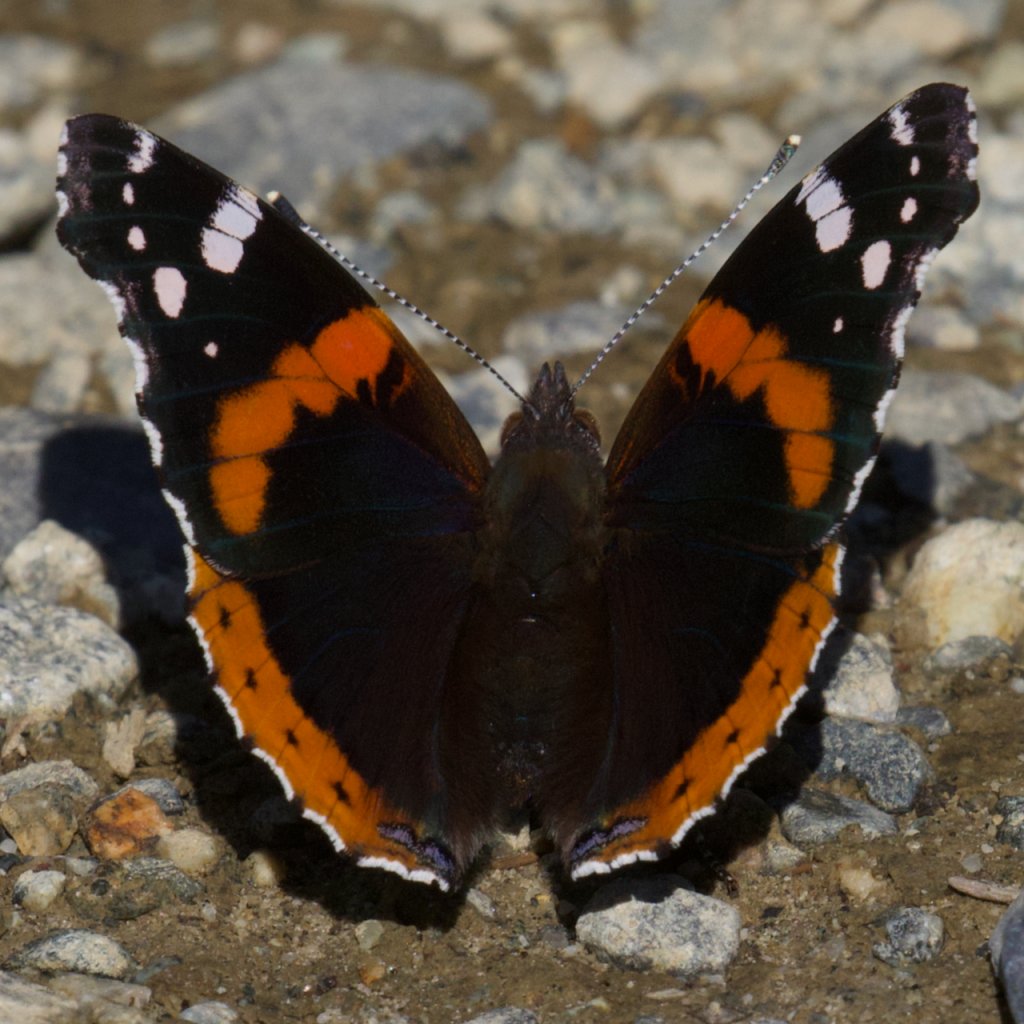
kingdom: Animalia
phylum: Arthropoda
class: Insecta
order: Lepidoptera
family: Nymphalidae
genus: Vanessa
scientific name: Vanessa atalanta
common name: Red Admiral
